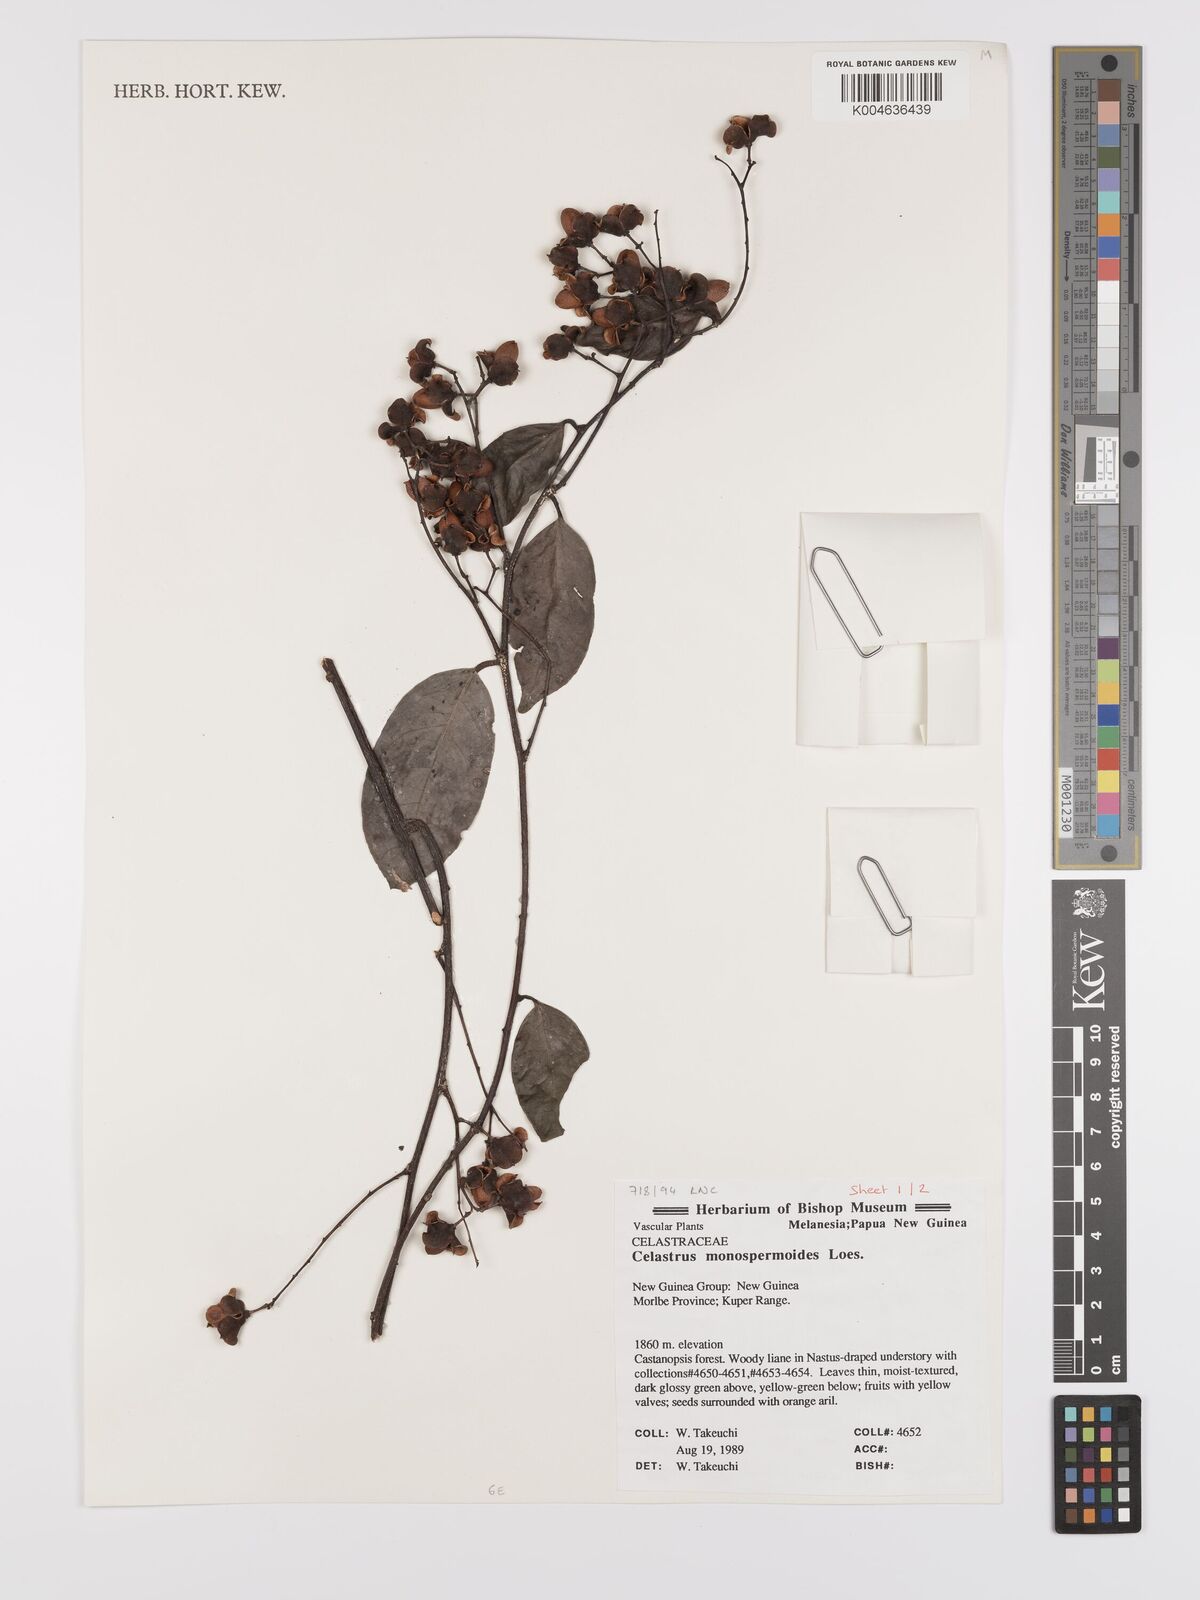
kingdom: Plantae
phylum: Tracheophyta
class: Magnoliopsida
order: Celastrales
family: Celastraceae
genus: Celastrus
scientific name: Celastrus monospermoides
